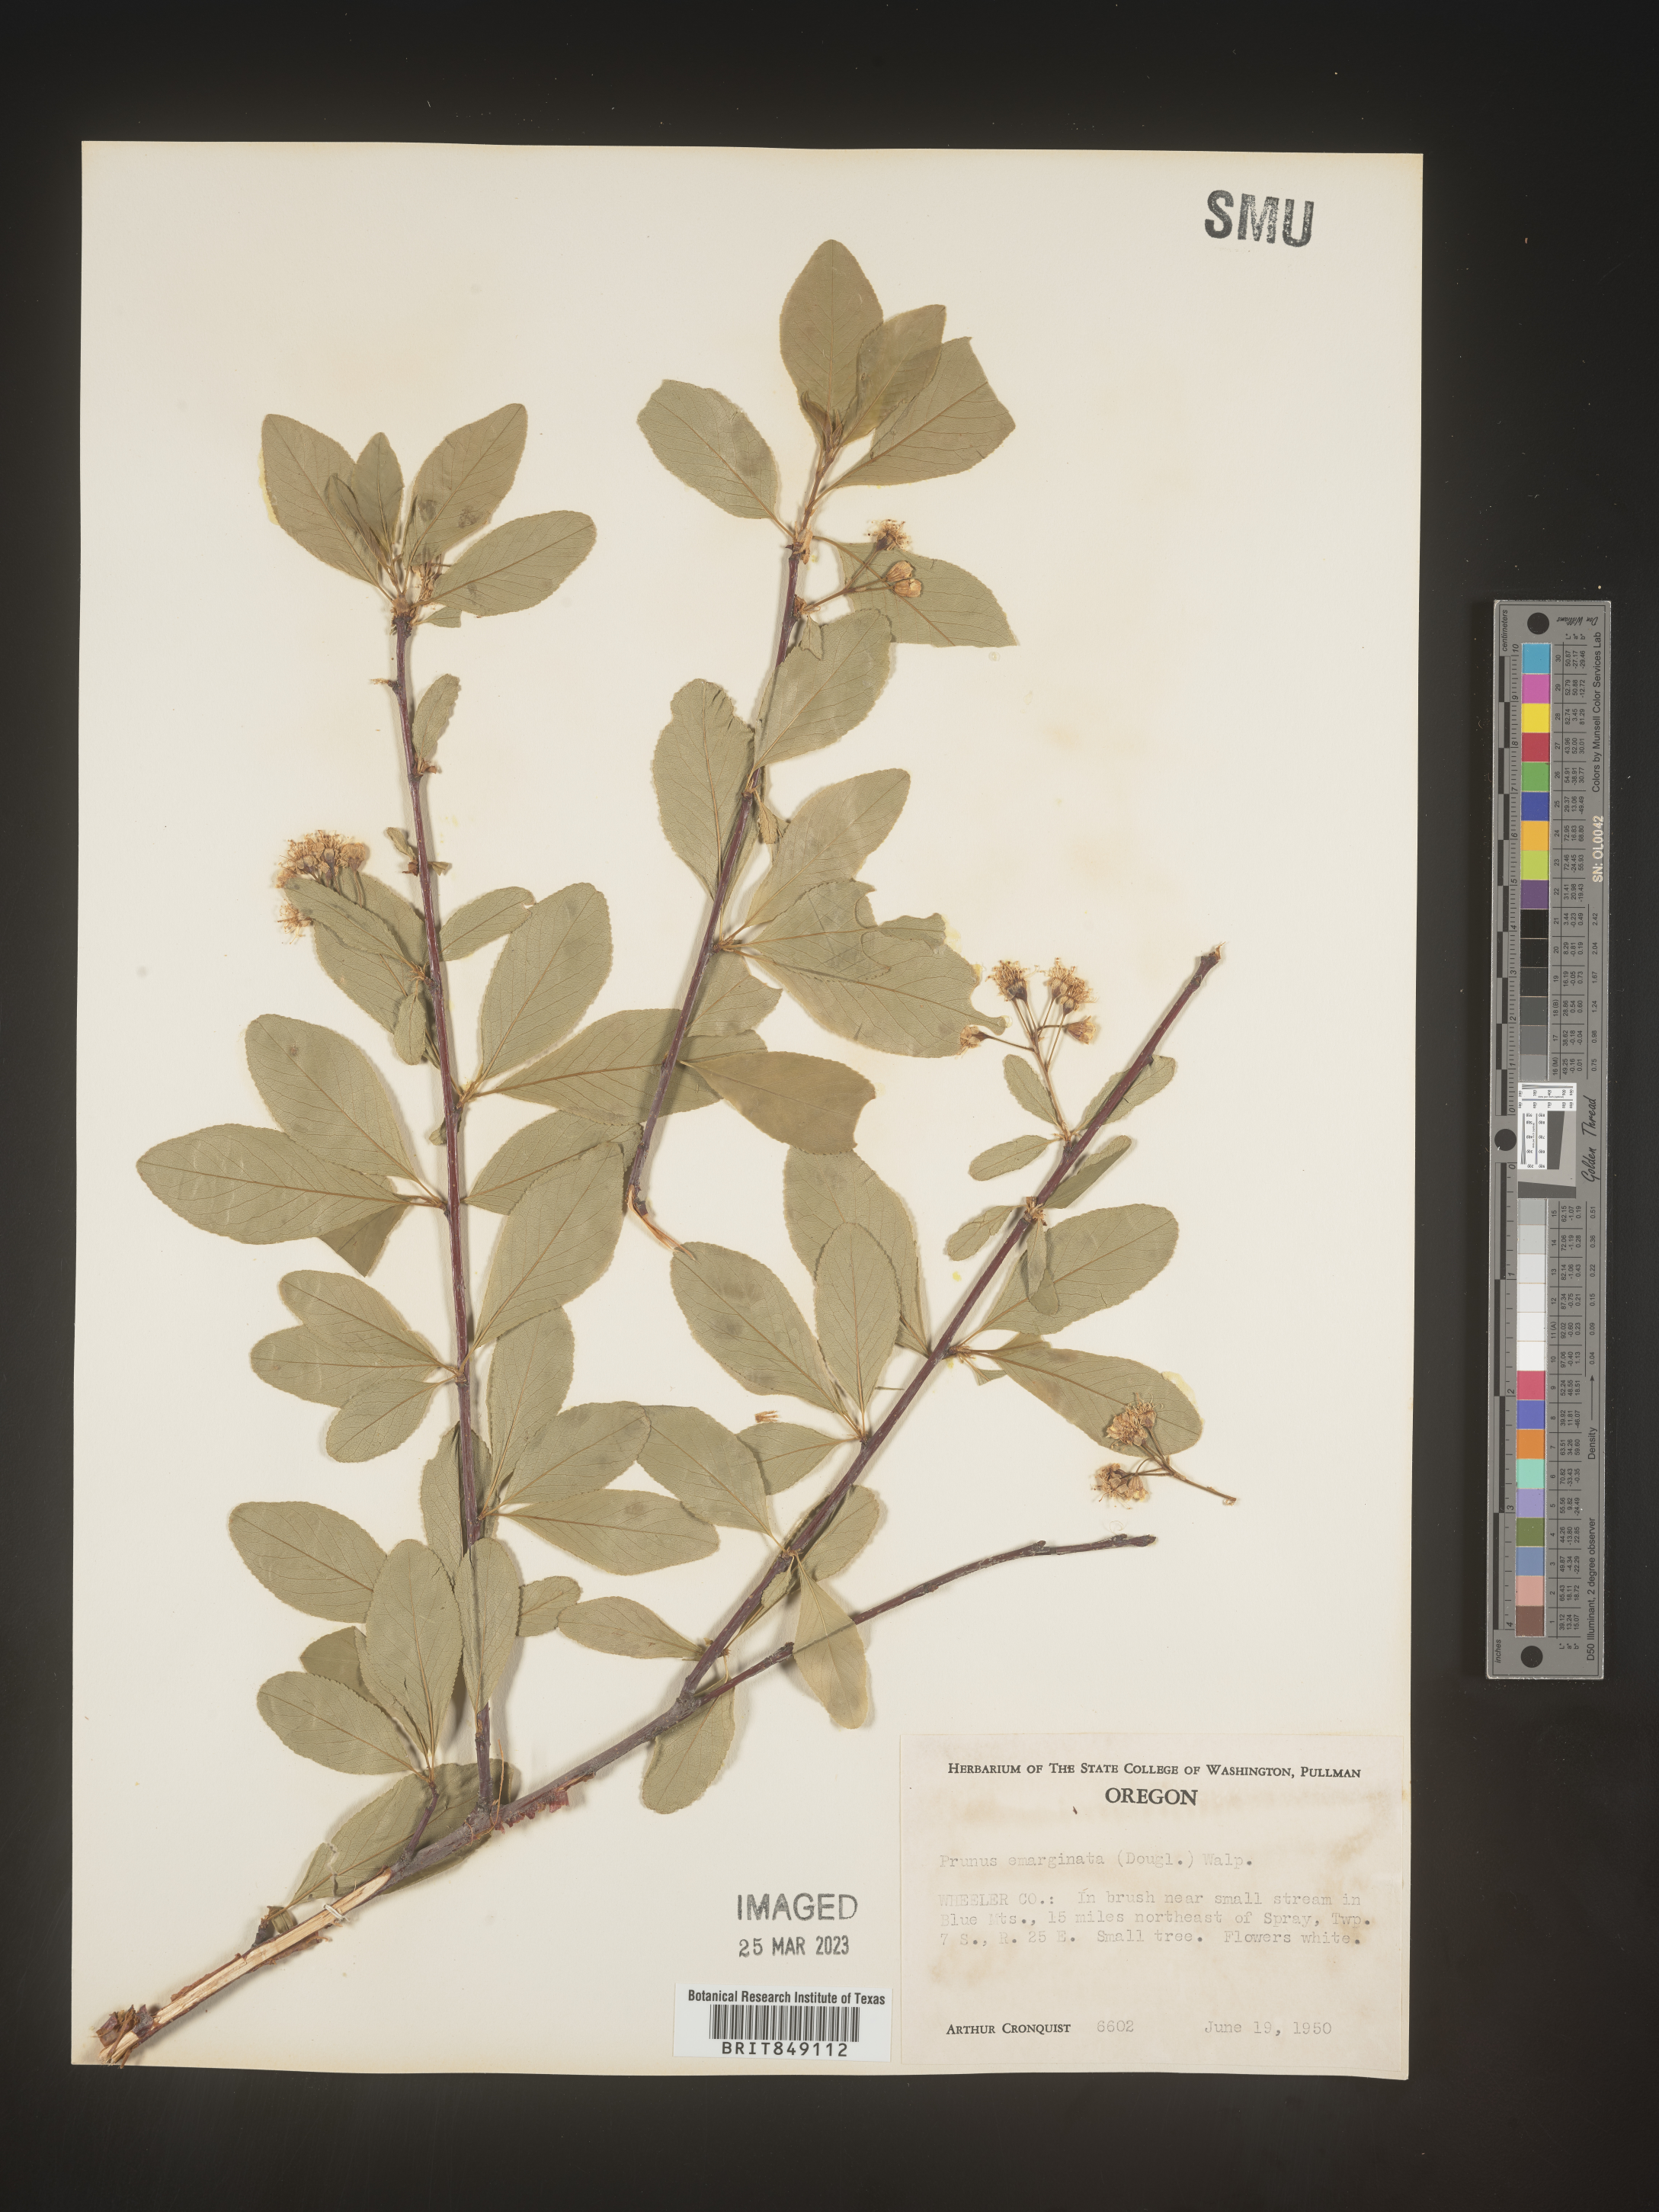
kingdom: Plantae
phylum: Tracheophyta
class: Magnoliopsida
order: Rosales
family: Rosaceae
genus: Prunus
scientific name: Prunus emarginata
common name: Bitter cherry
